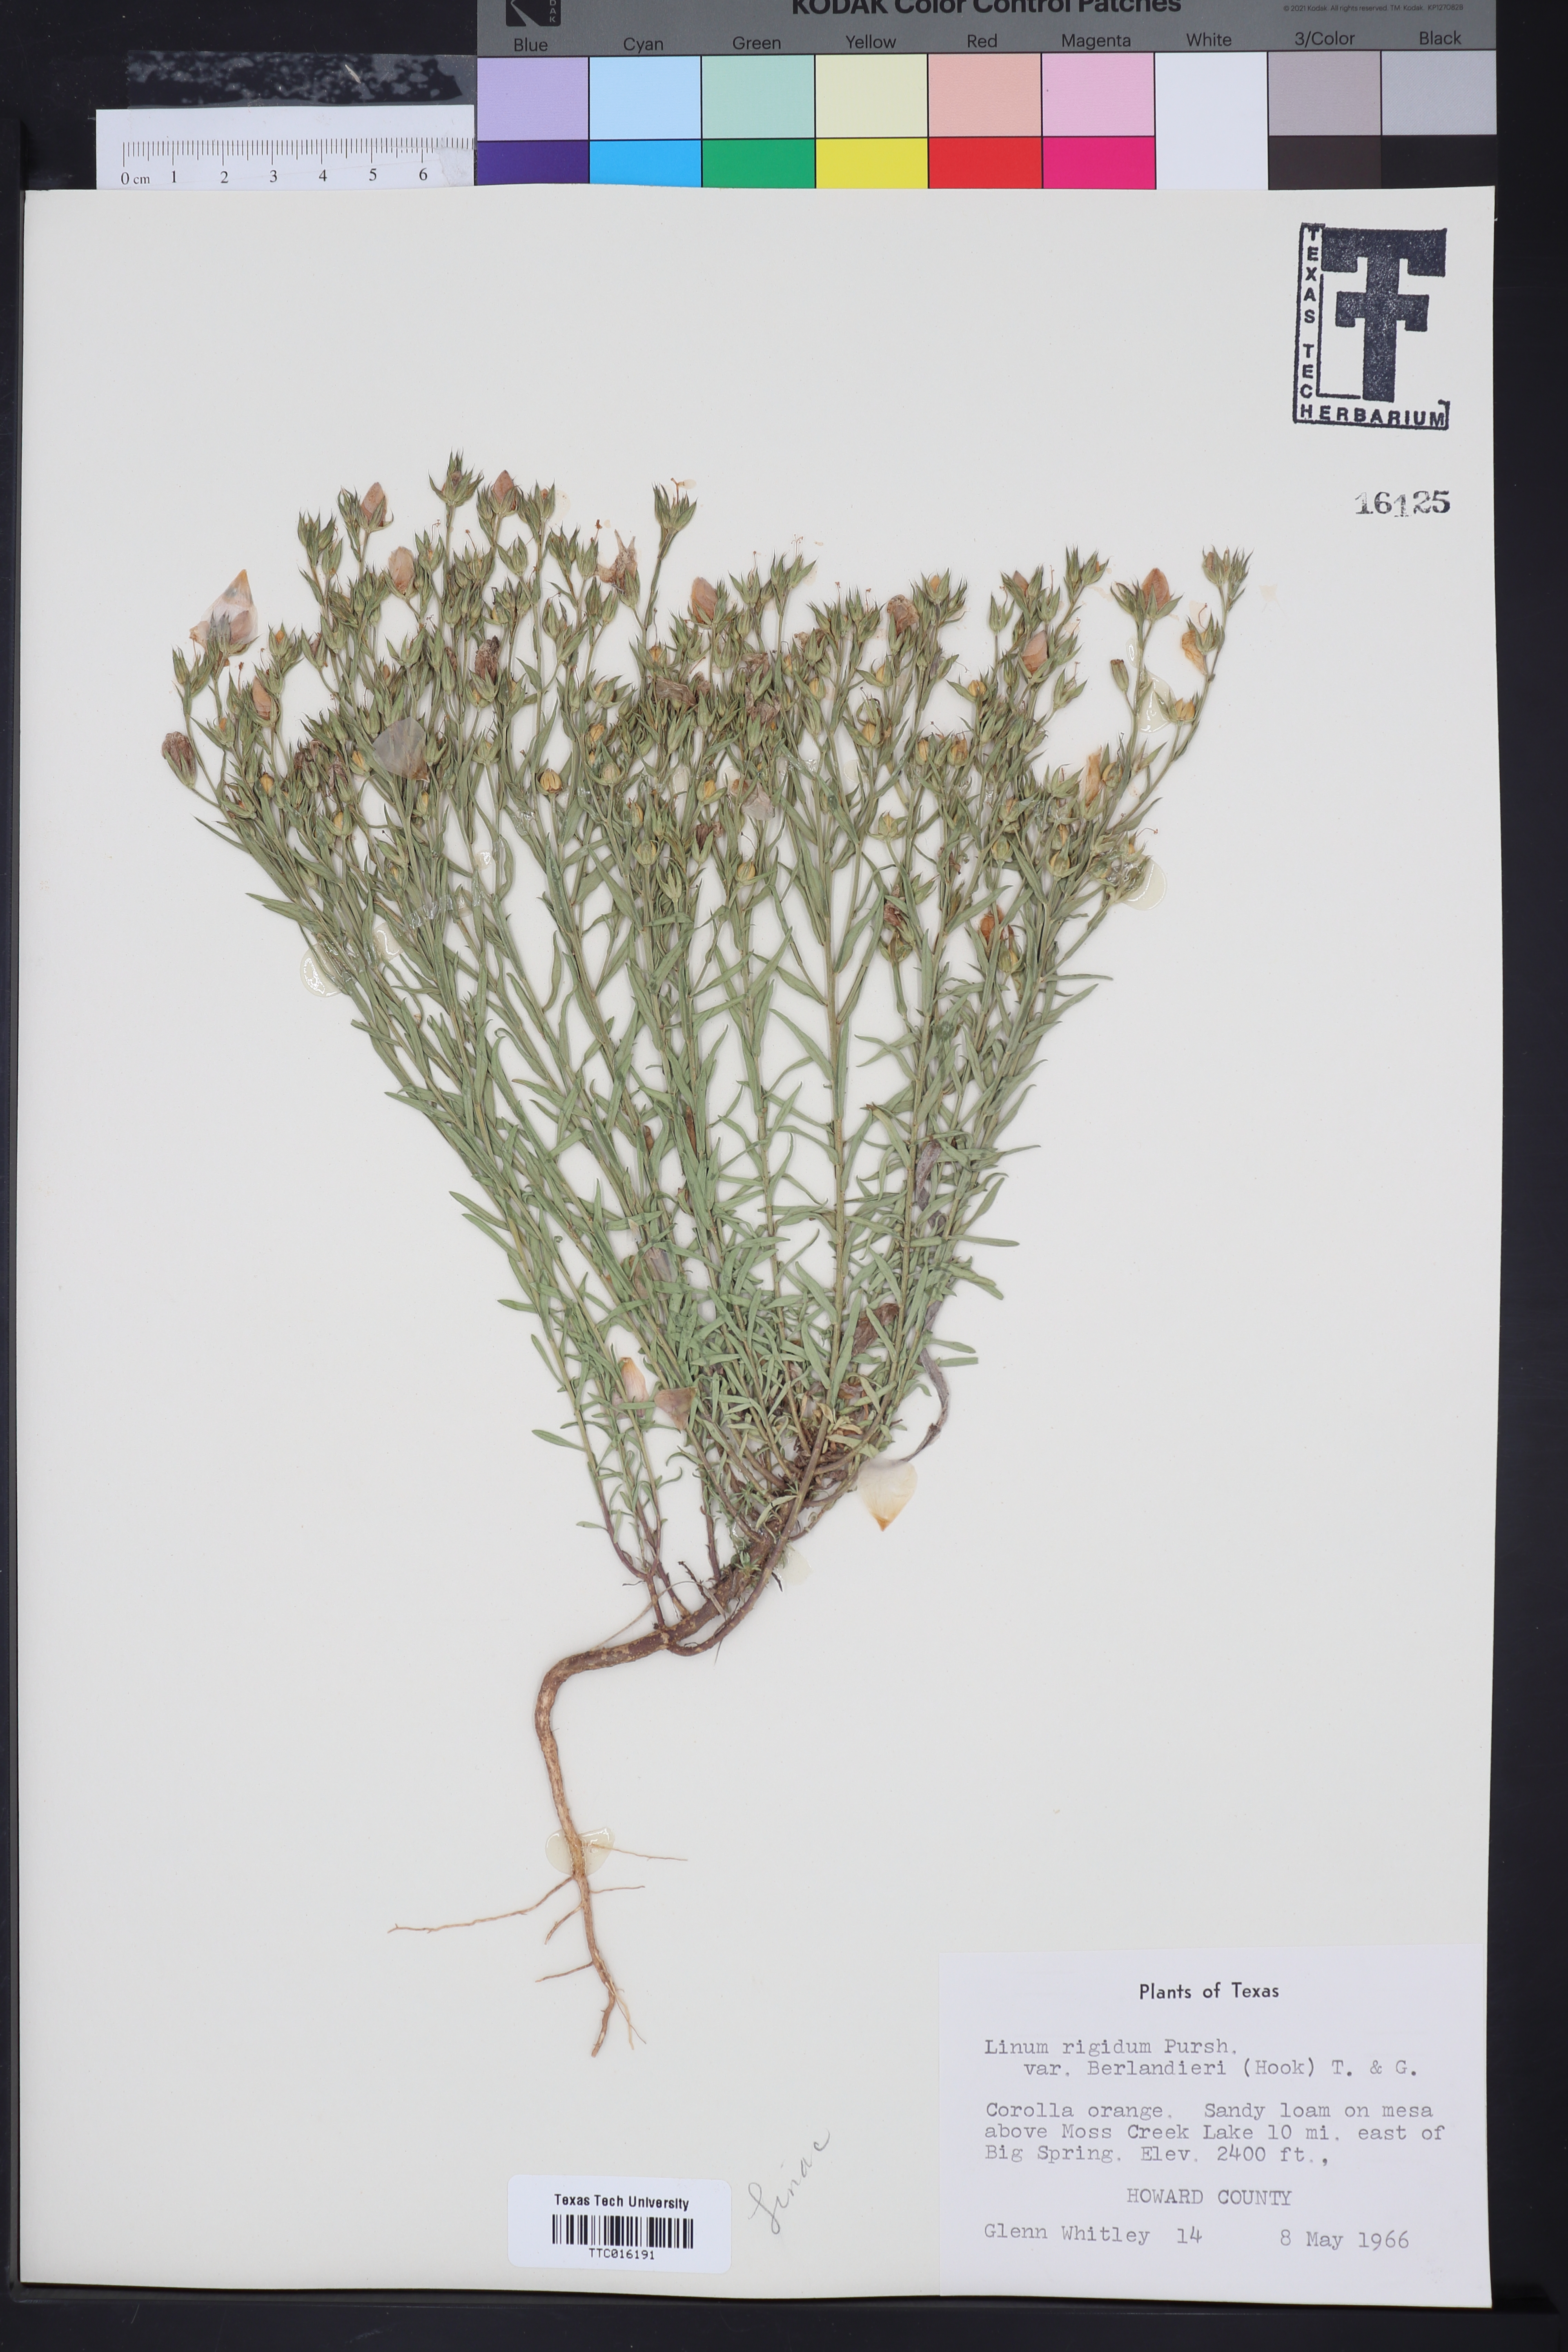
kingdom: Plantae
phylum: Tracheophyta
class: Magnoliopsida
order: Malpighiales
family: Linaceae
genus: Linum
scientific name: Linum berlandieri
